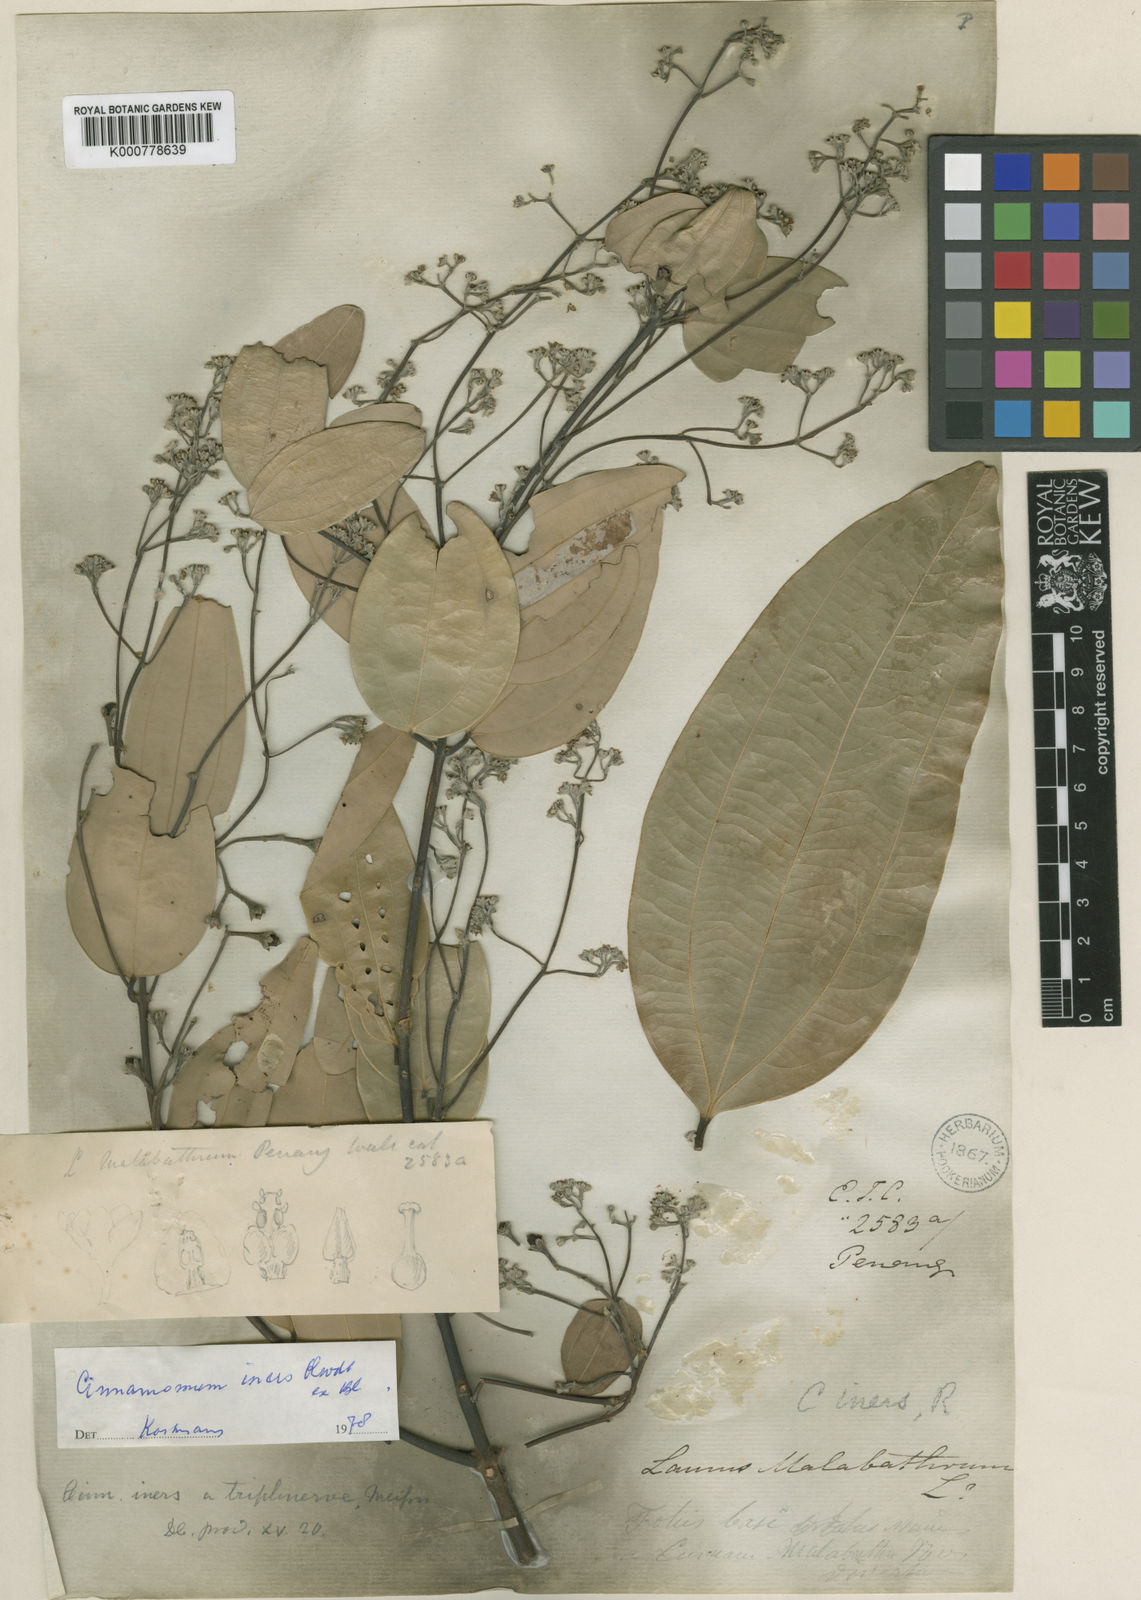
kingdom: Plantae
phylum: Tracheophyta
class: Magnoliopsida
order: Laurales
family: Lauraceae
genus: Cinnamomum
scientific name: Cinnamomum iners
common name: Wild cinnamon
